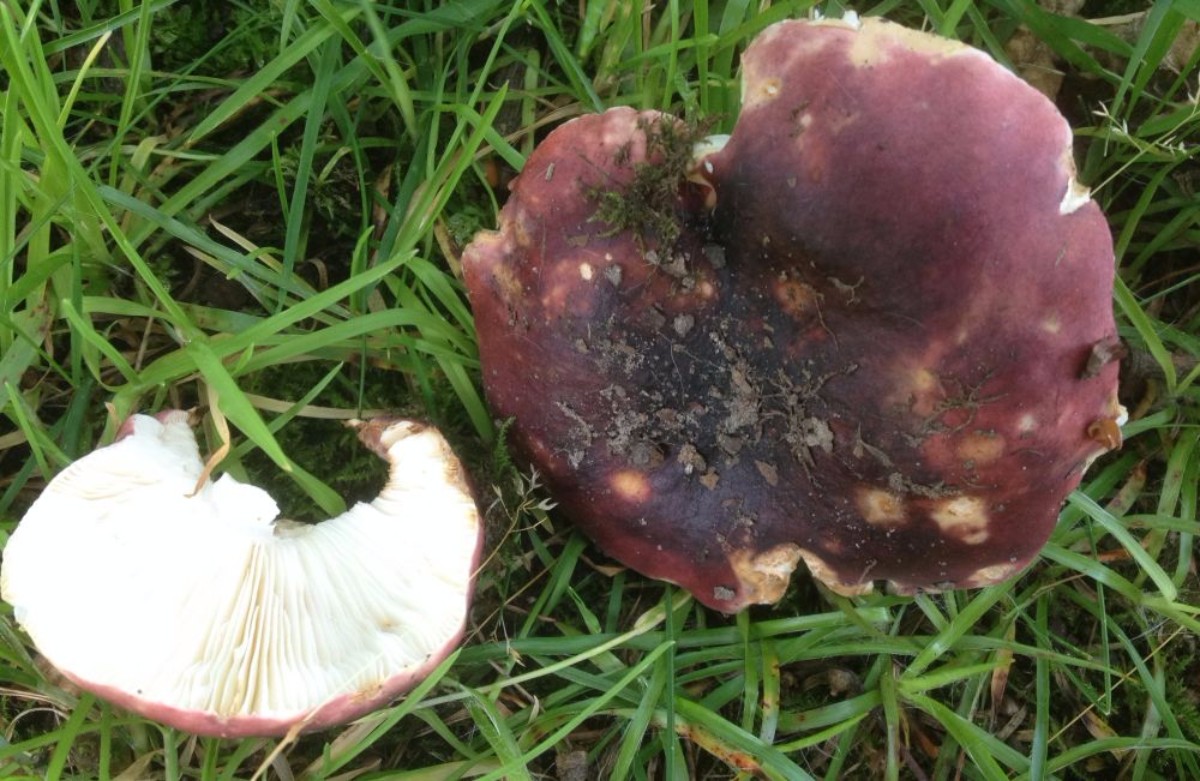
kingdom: Fungi
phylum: Basidiomycota
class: Agaricomycetes
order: Russulales
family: Russulaceae
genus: Russula
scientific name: Russula atropurpurea
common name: purpurbroget skørhat
